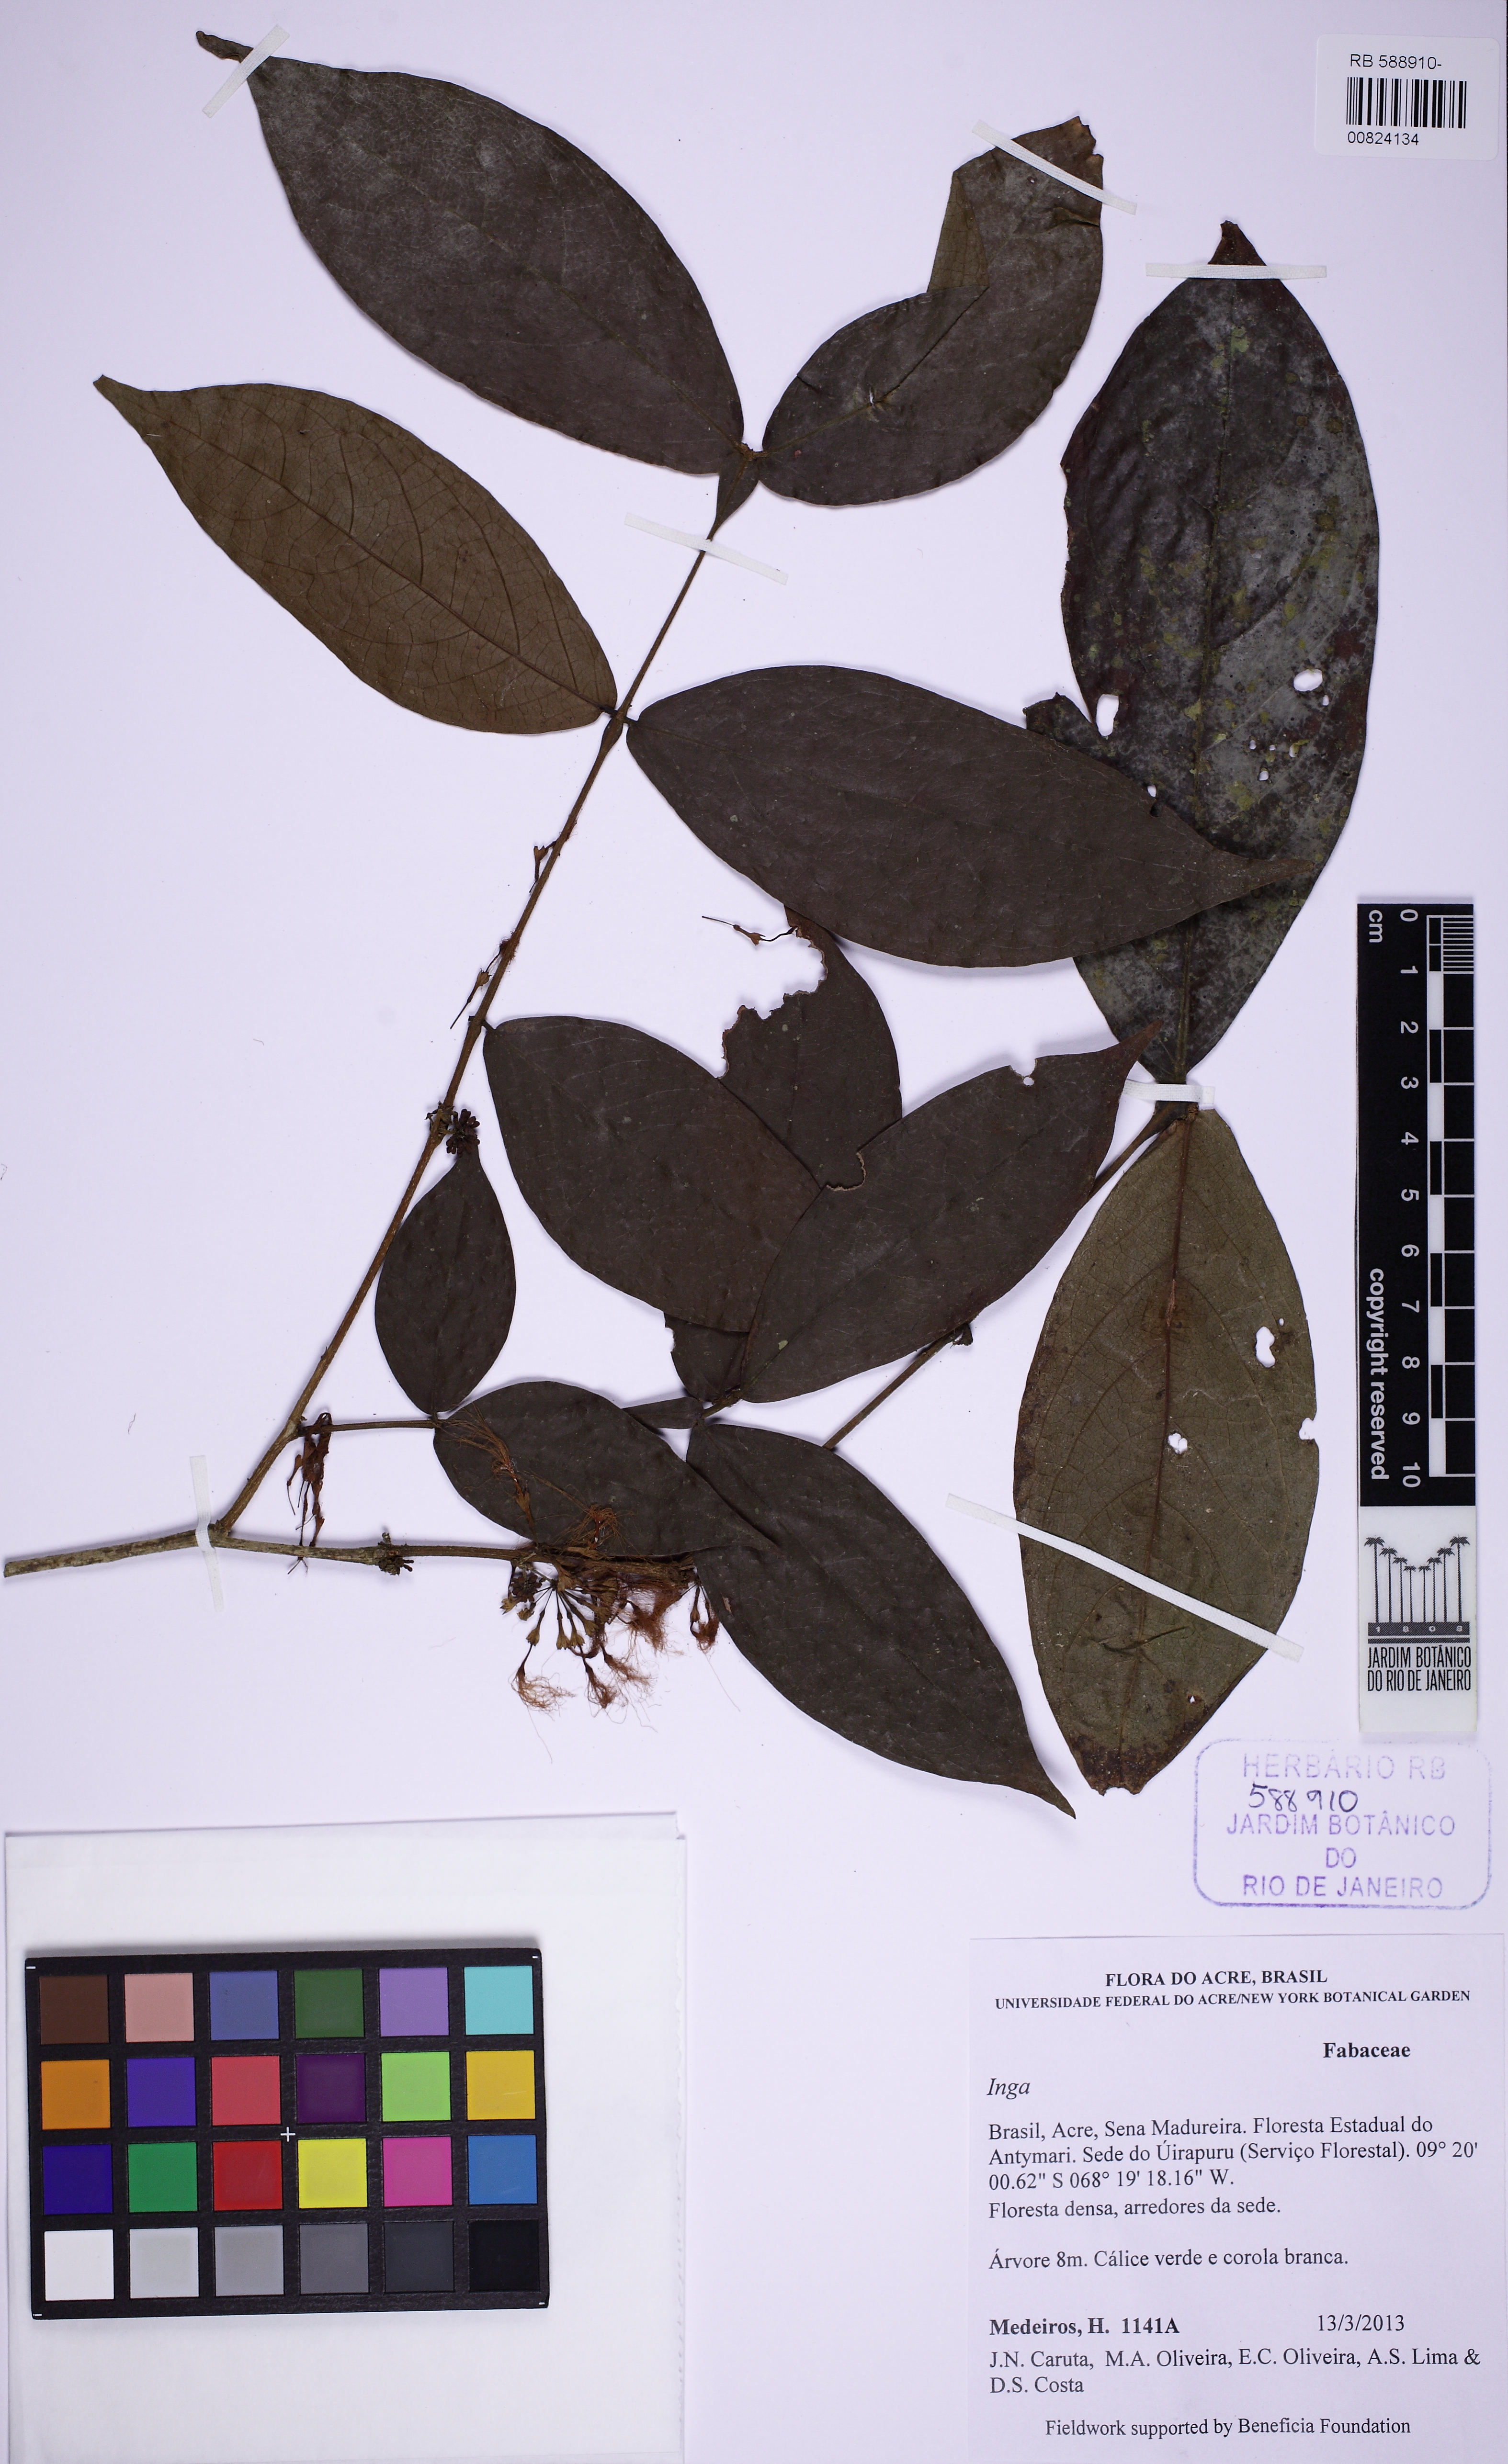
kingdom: Plantae
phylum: Tracheophyta
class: Magnoliopsida
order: Fabales
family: Fabaceae
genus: Inga
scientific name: Inga
